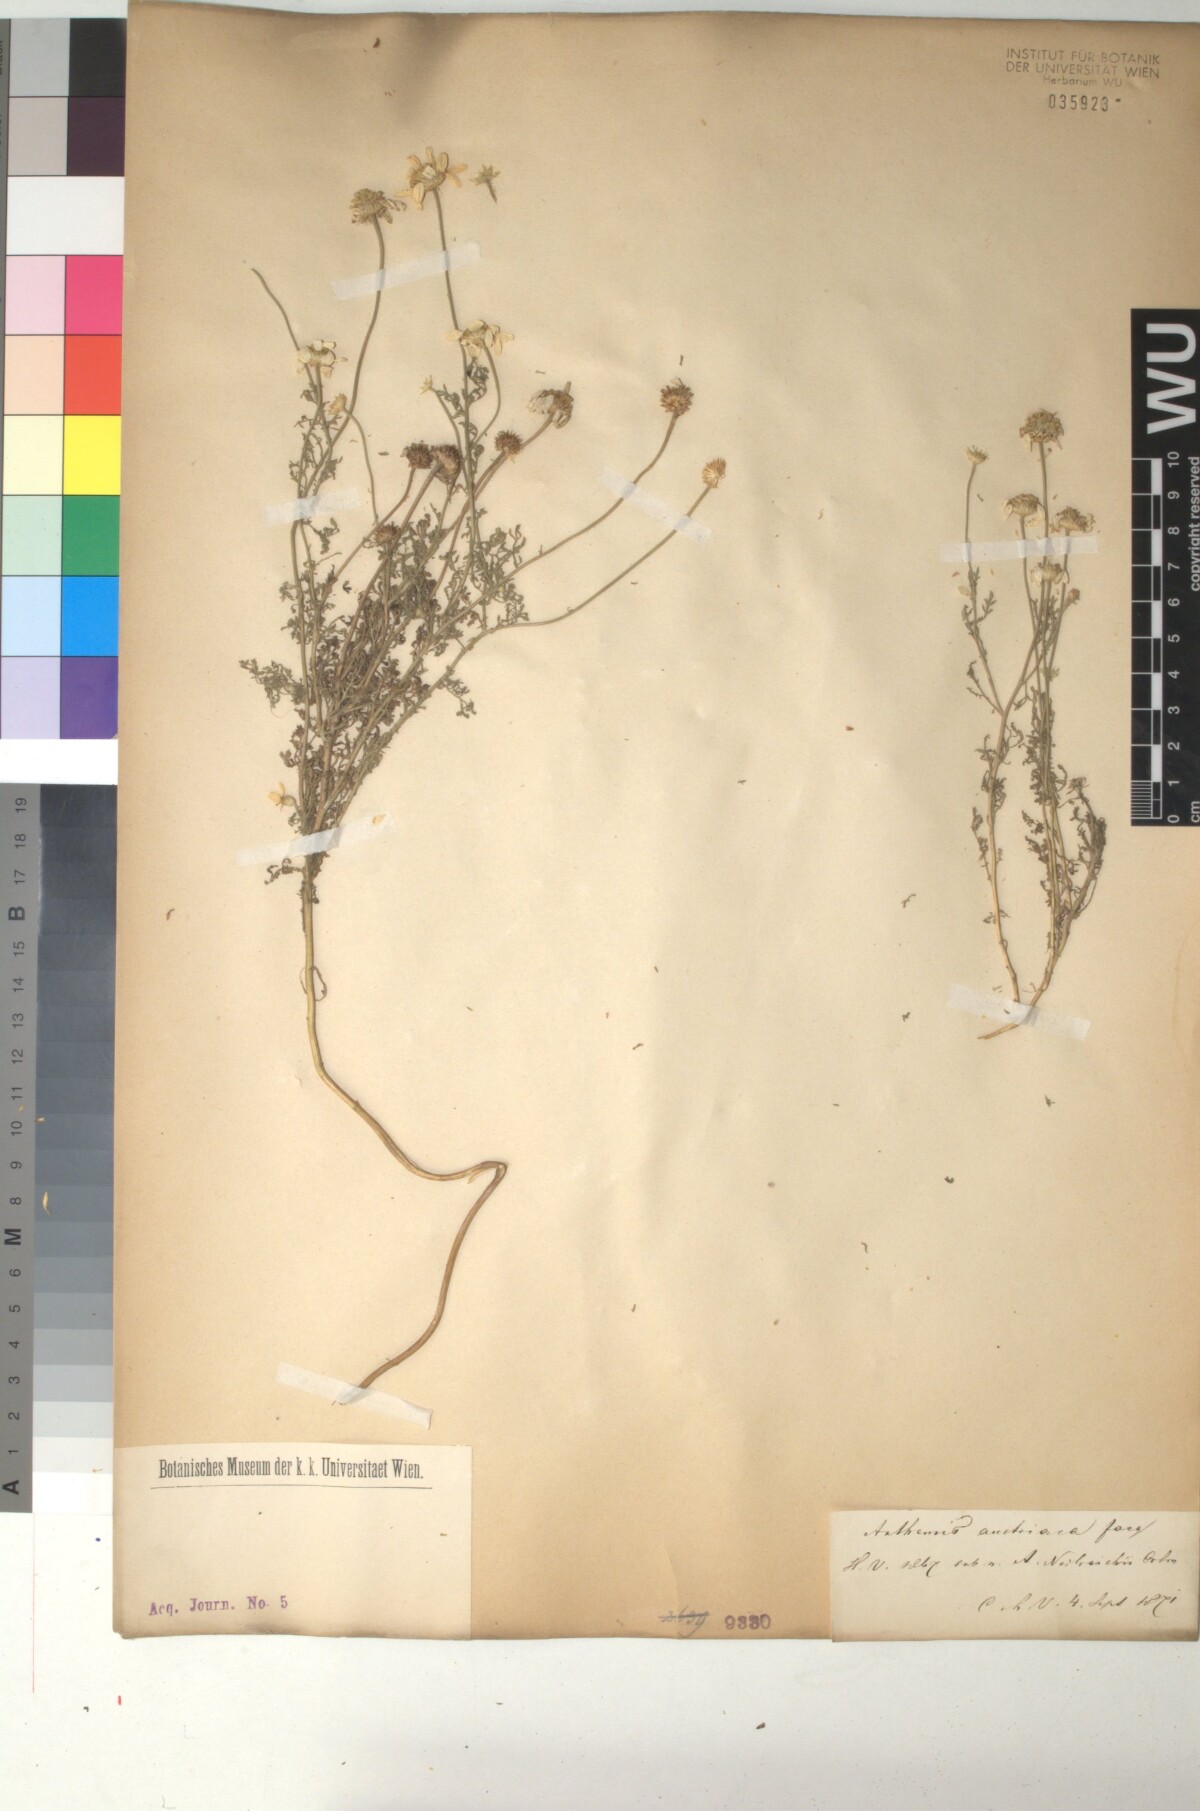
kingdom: Plantae
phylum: Tracheophyta
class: Magnoliopsida
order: Asterales
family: Asteraceae
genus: Cota
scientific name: Cota austriaca
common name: Austrian chamomile
